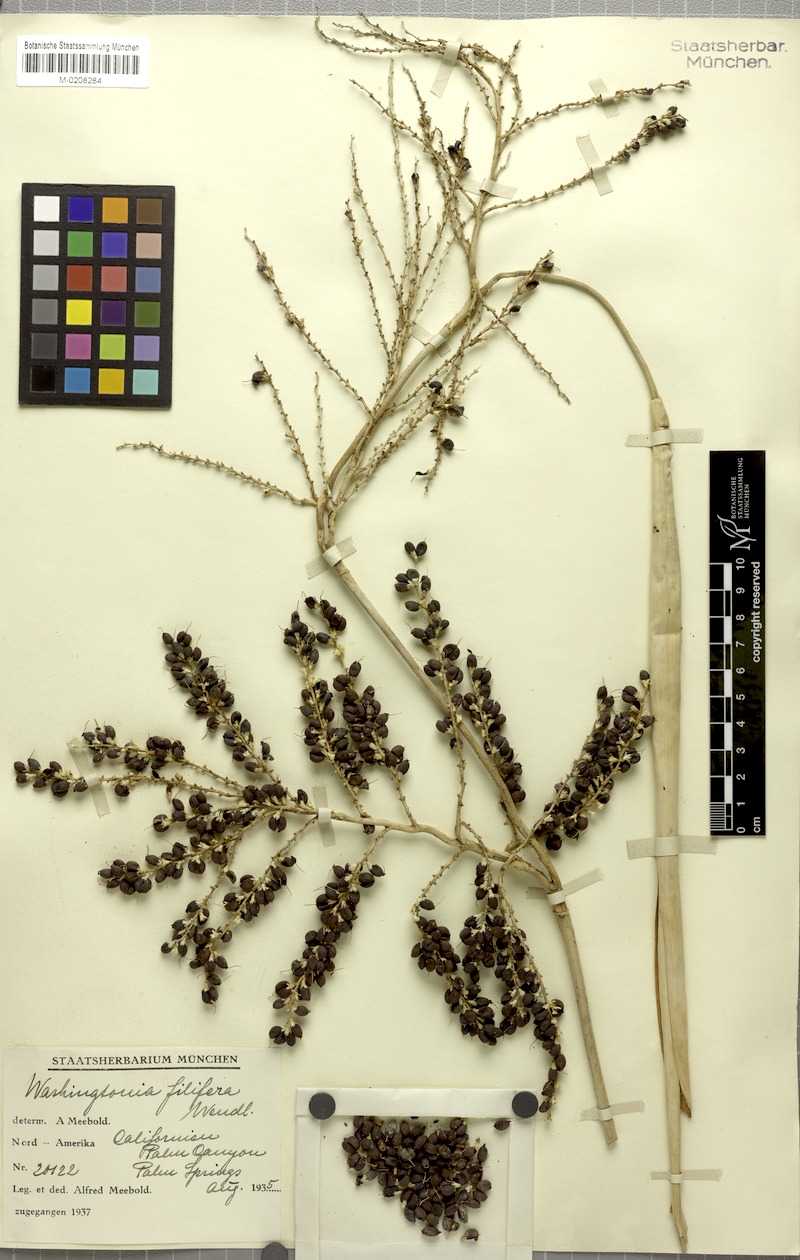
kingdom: Plantae
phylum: Tracheophyta
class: Liliopsida
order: Arecales
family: Arecaceae
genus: Washingtonia
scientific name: Washingtonia filifera
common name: California fan palm
